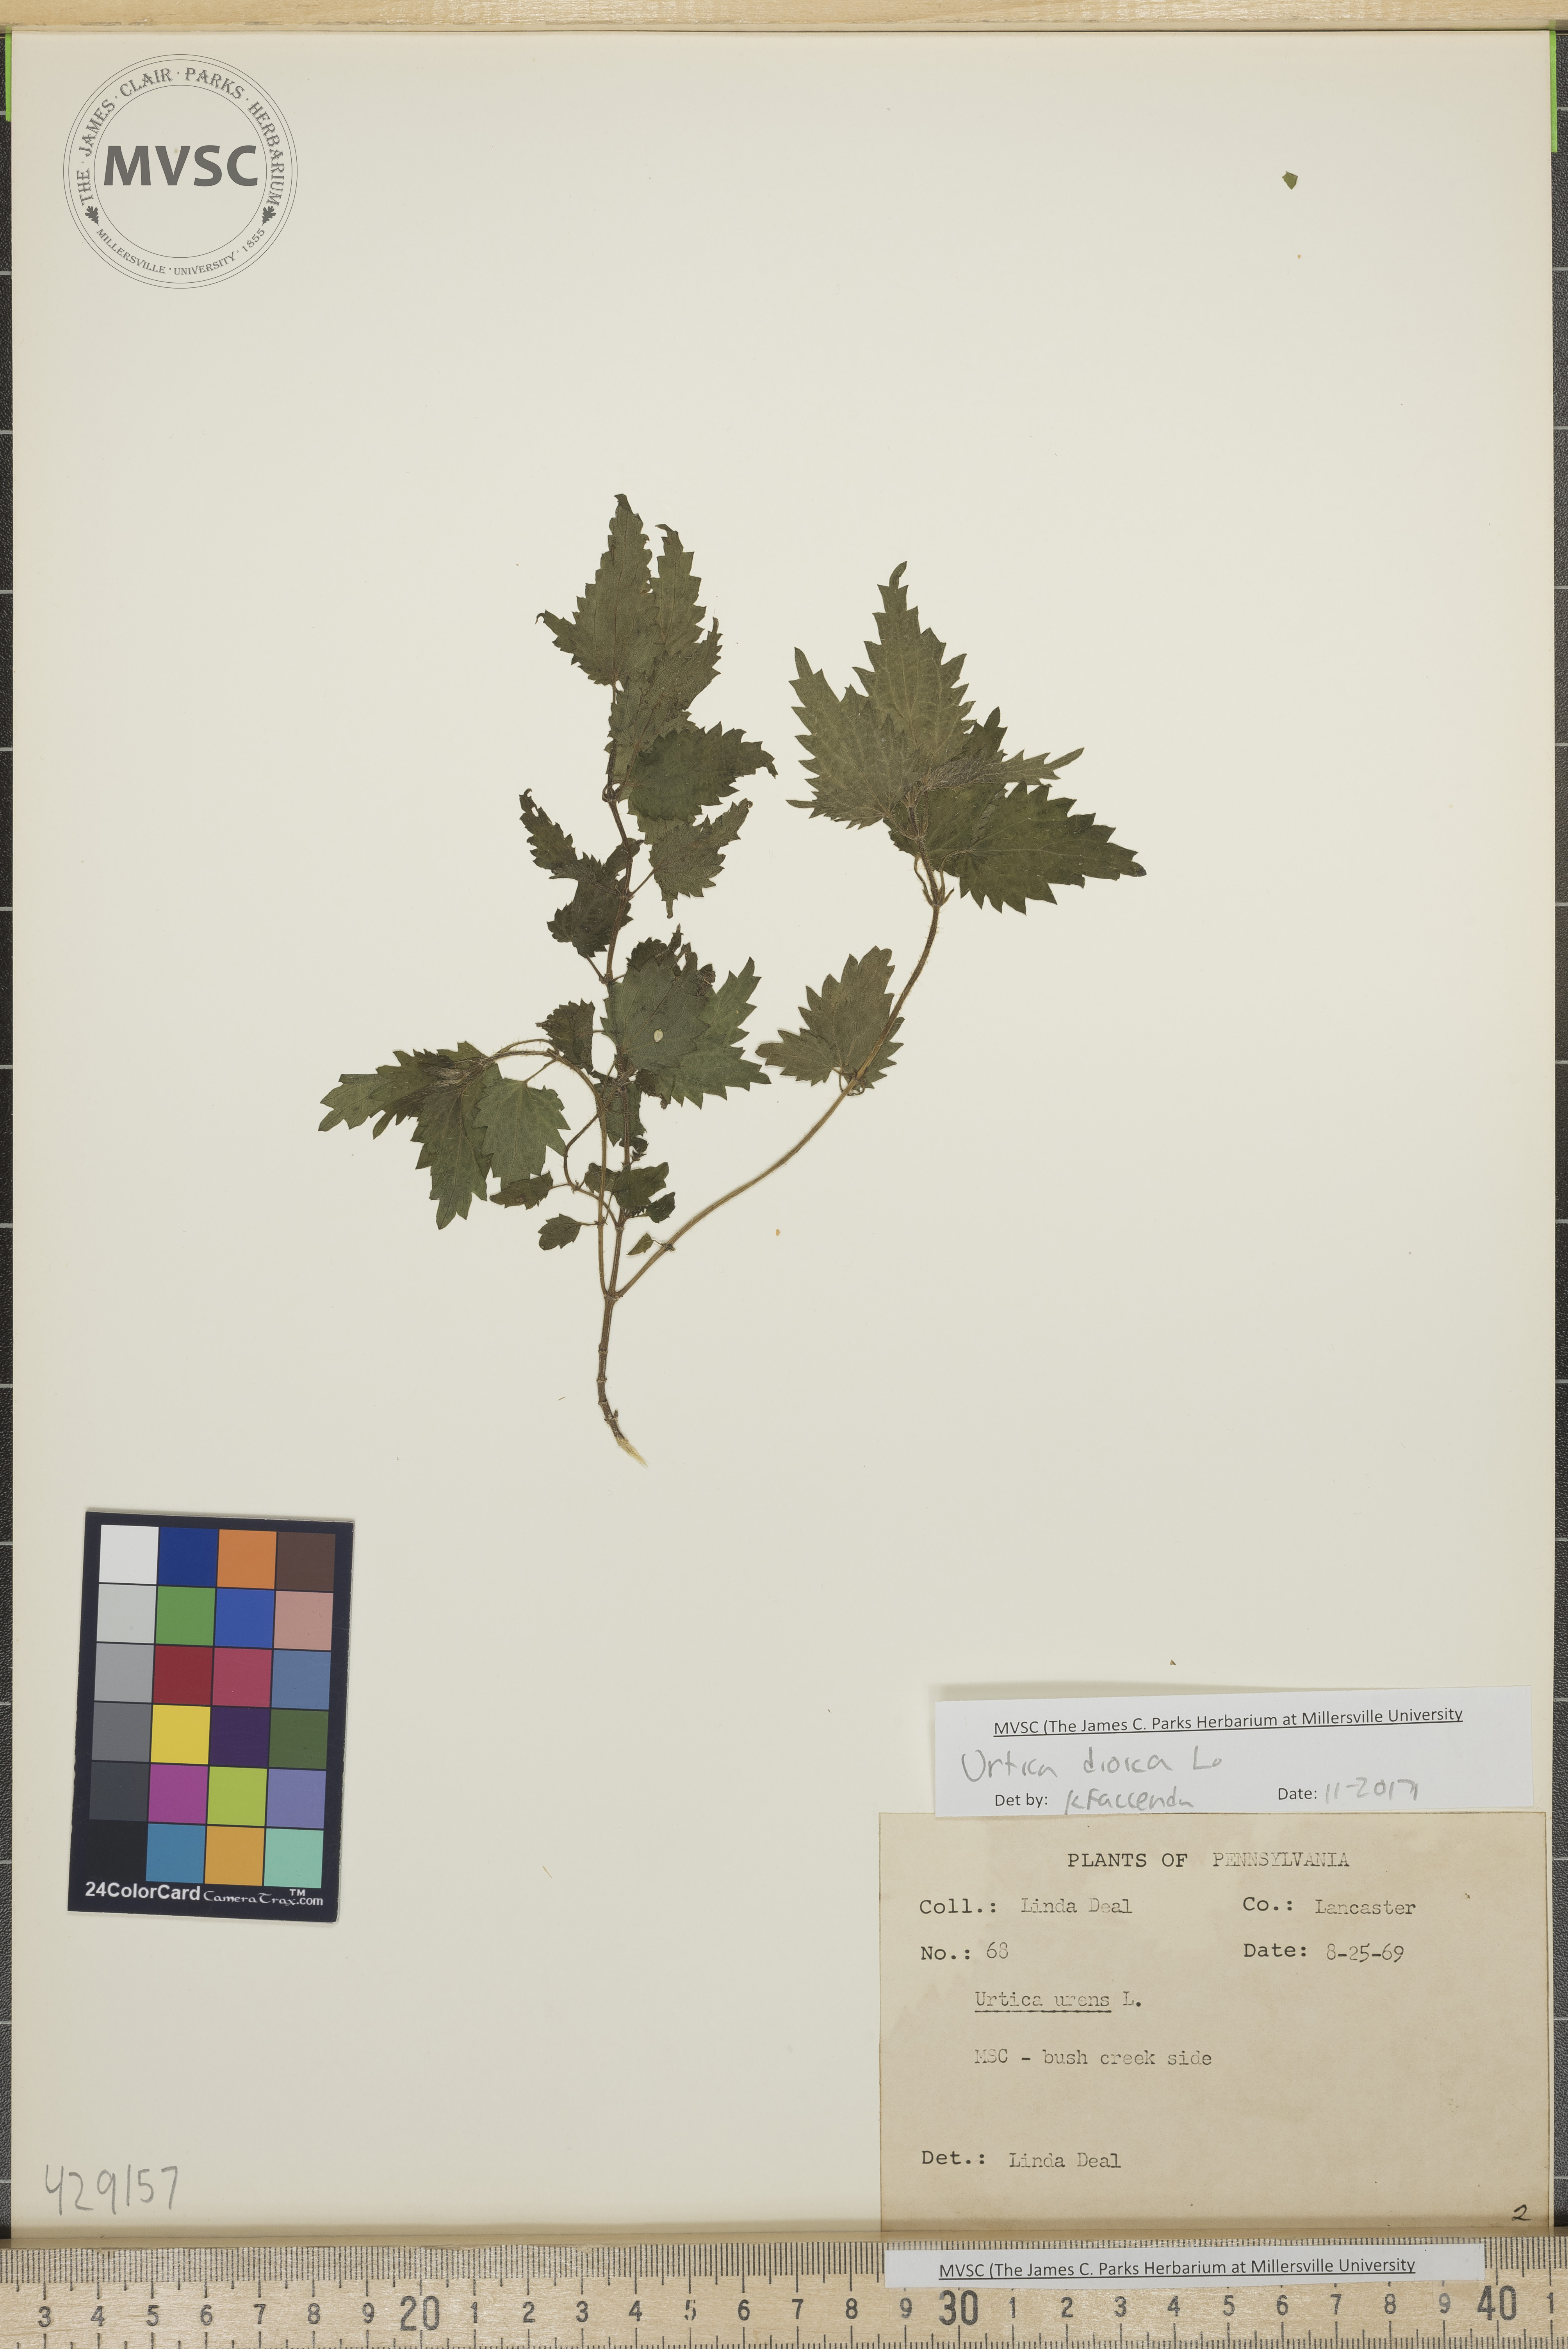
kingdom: Plantae
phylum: Tracheophyta
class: Magnoliopsida
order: Rosales
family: Urticaceae
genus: Urtica
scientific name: Urtica dioica
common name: Stinging nettle
